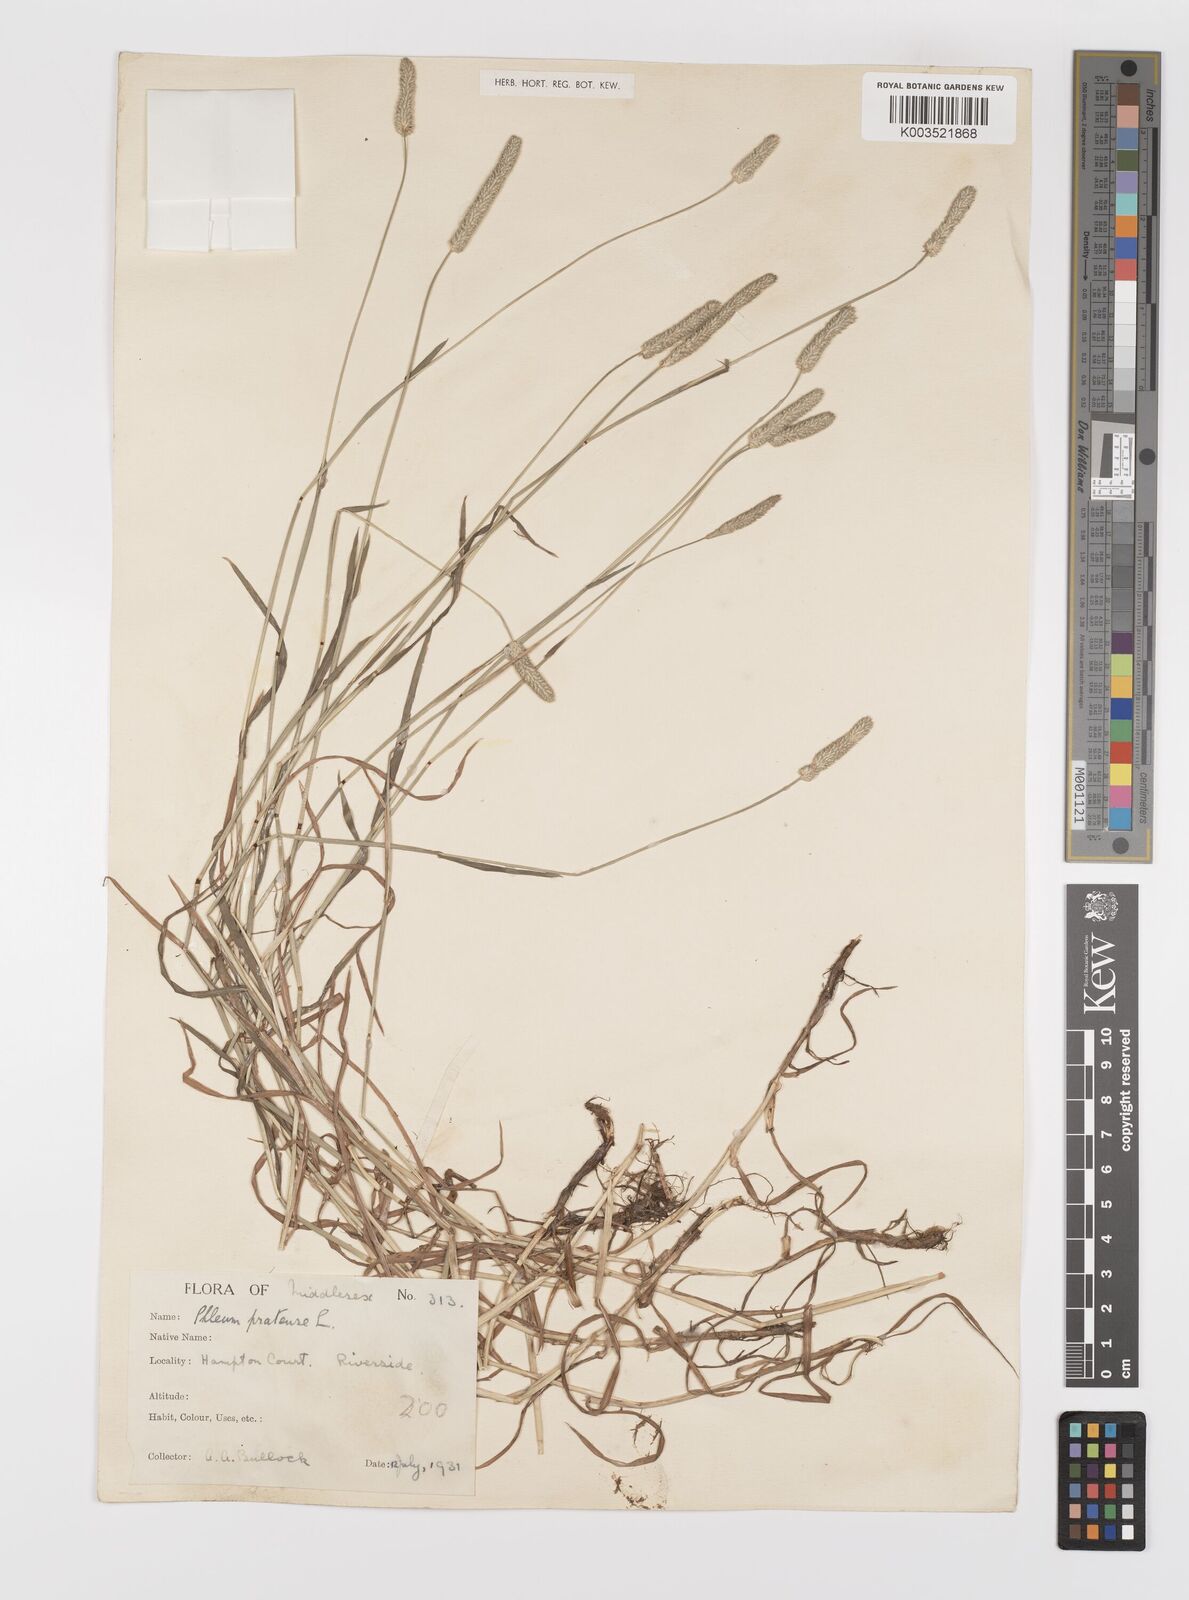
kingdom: Plantae
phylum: Tracheophyta
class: Liliopsida
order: Poales
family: Poaceae
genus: Phleum
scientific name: Phleum bertolonii
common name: Smaller cat's-tail
